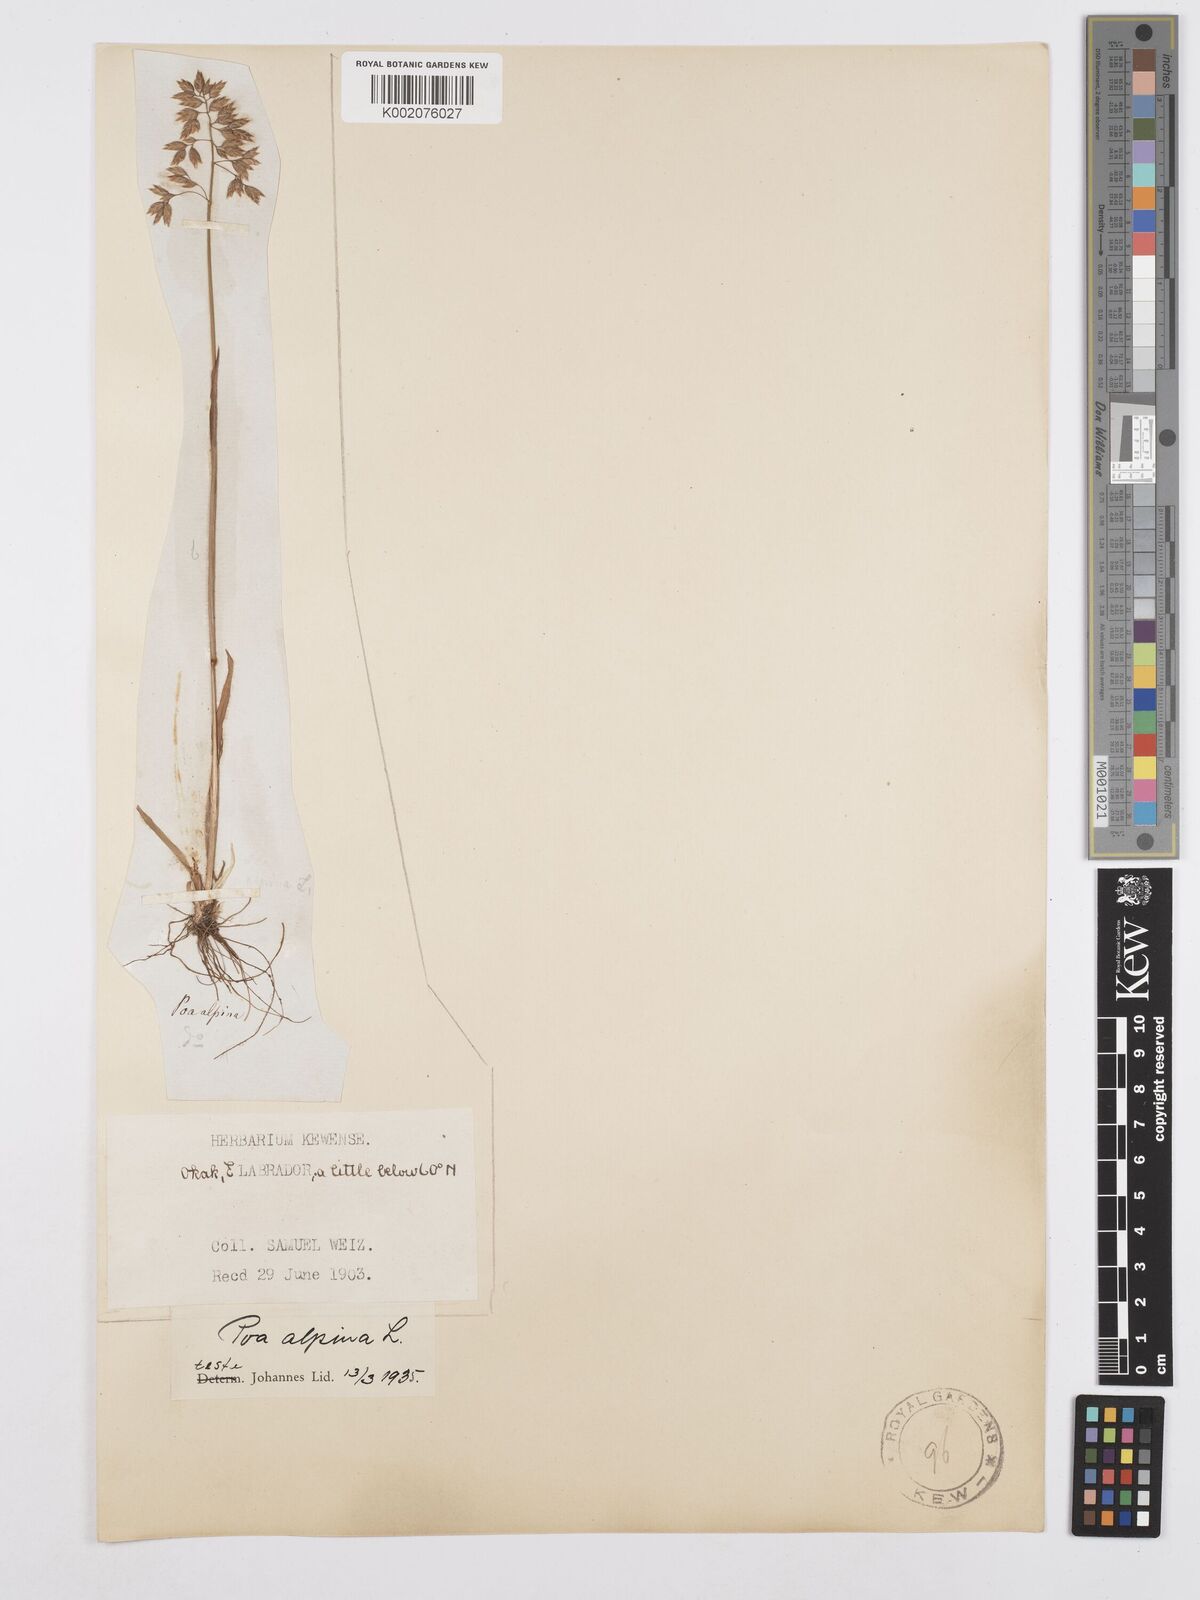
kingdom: Plantae
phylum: Tracheophyta
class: Liliopsida
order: Poales
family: Poaceae
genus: Poa
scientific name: Poa alpina
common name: Alpine bluegrass
